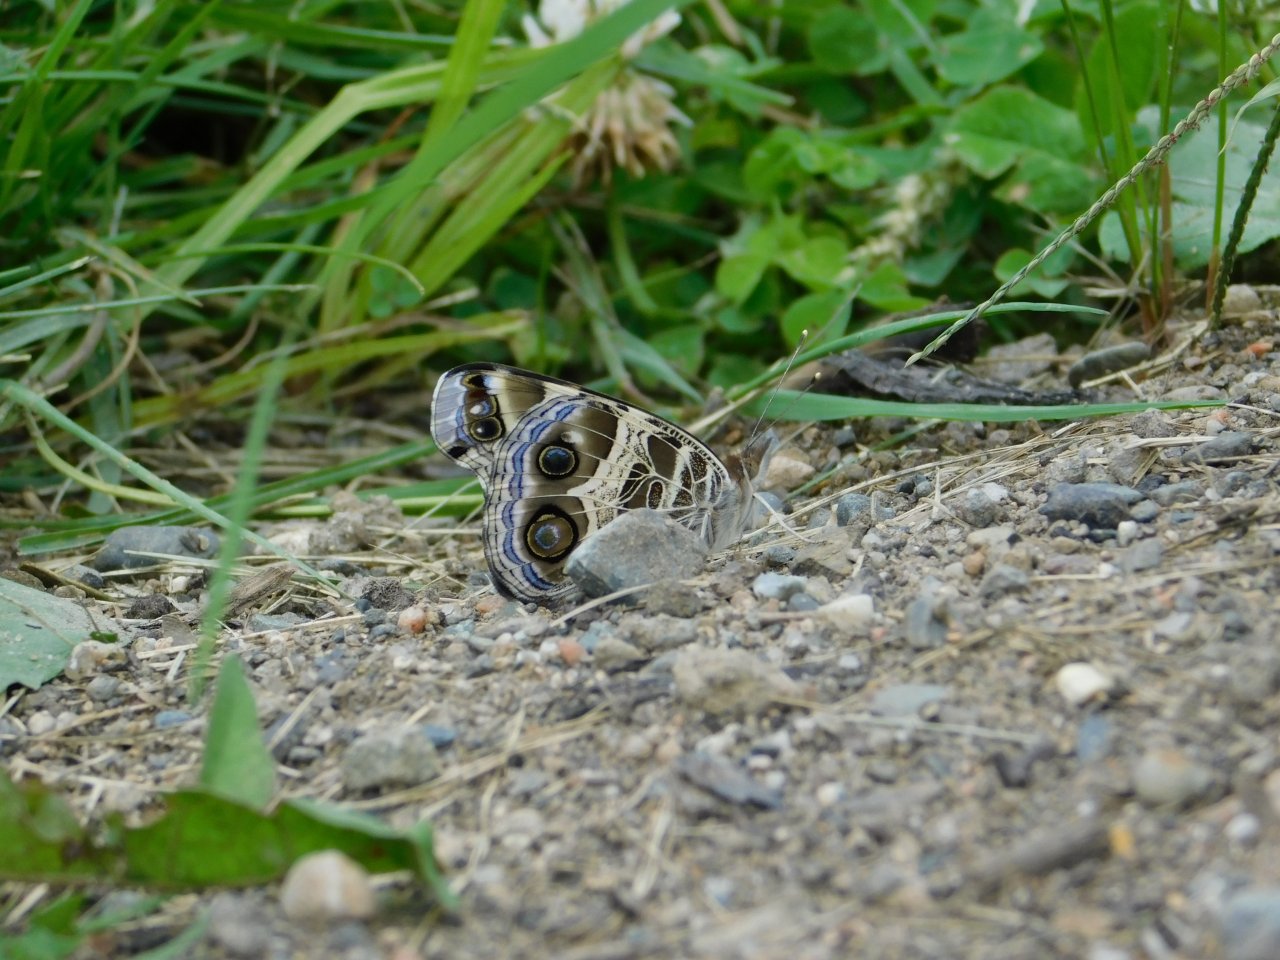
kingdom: Animalia
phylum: Arthropoda
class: Insecta
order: Lepidoptera
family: Nymphalidae
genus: Vanessa
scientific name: Vanessa virginiensis
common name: American Lady
